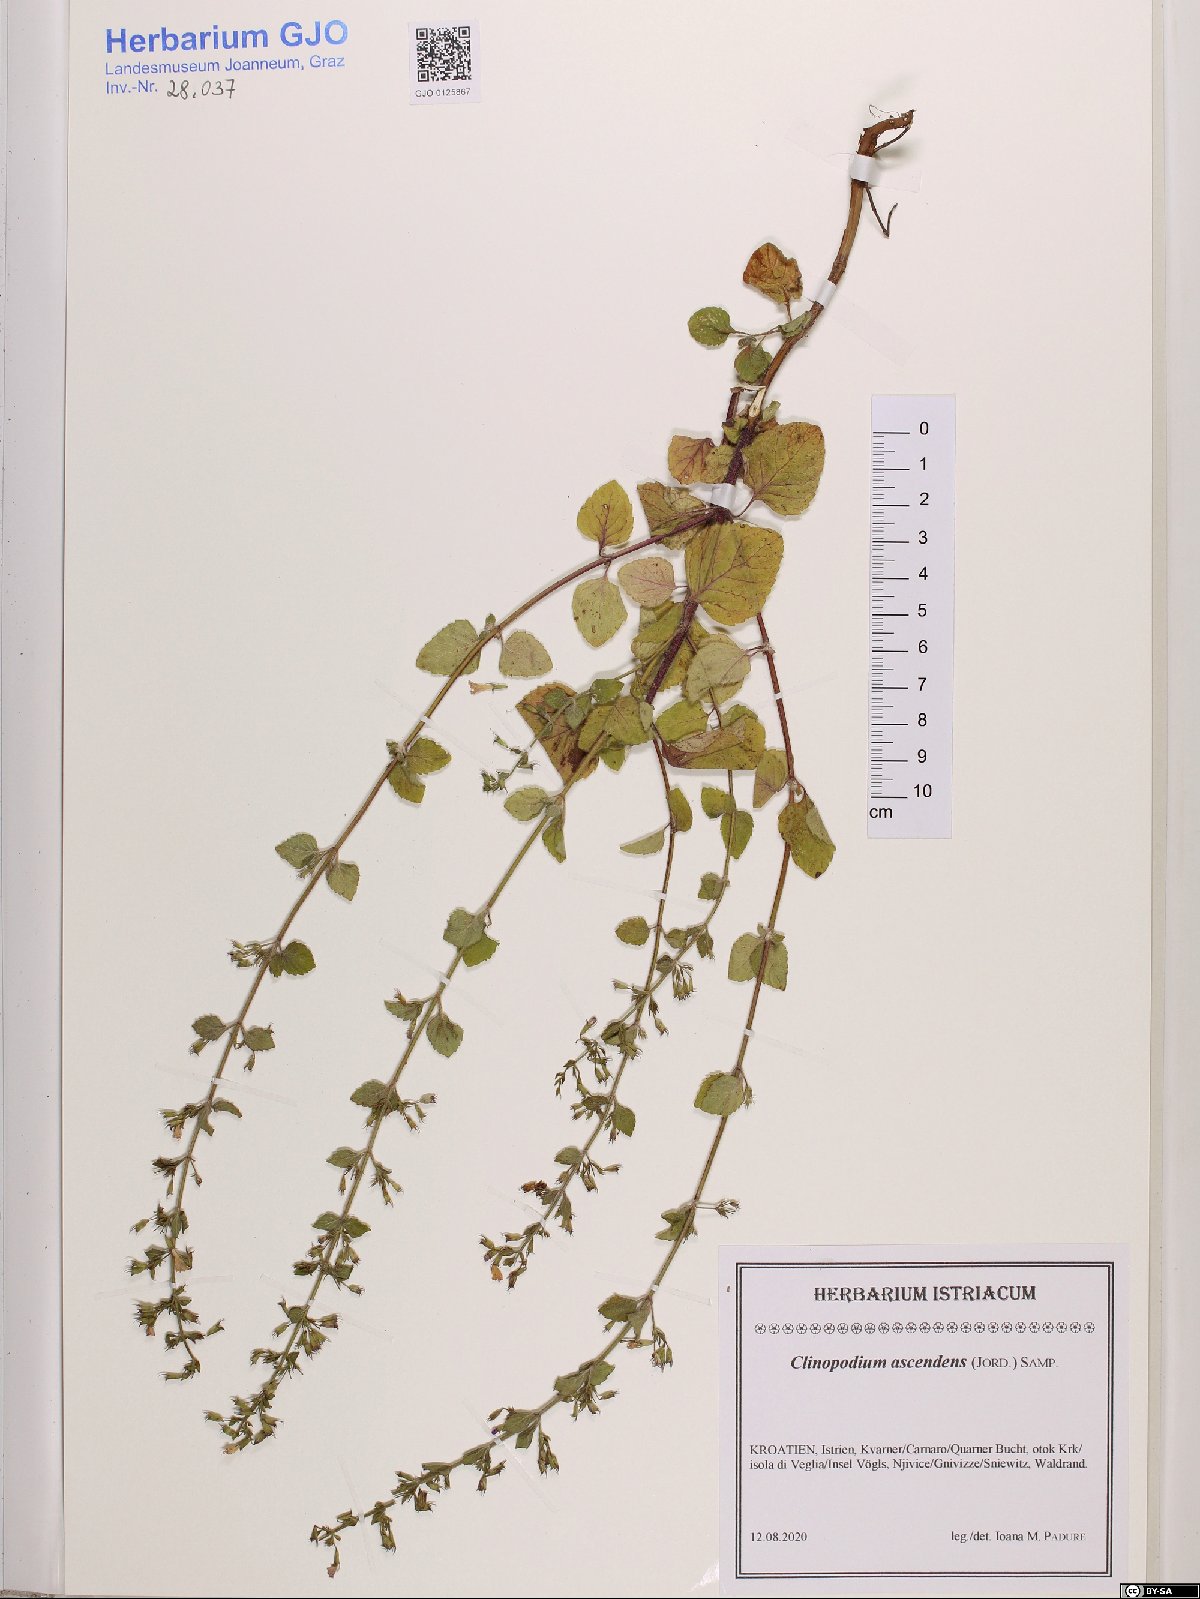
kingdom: Plantae
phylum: Tracheophyta
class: Magnoliopsida
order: Lamiales
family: Lamiaceae
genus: Clinopodium
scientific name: Clinopodium menthifolium
